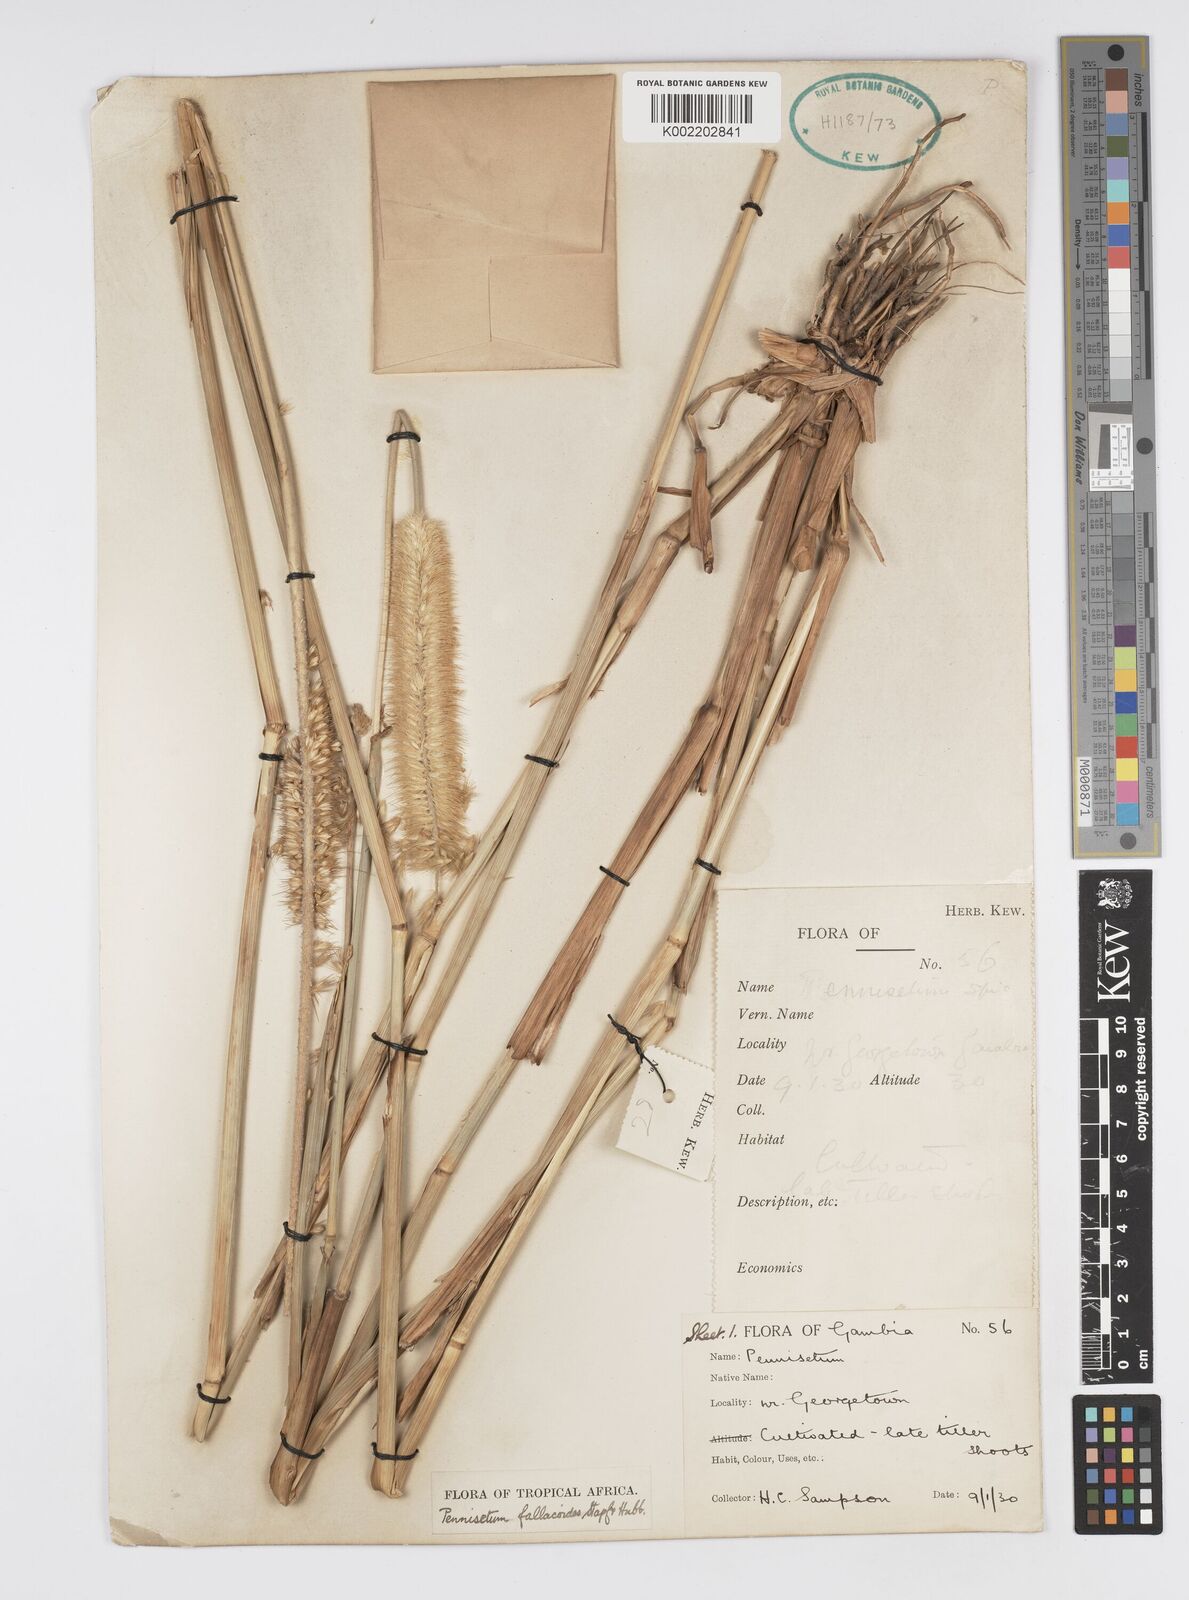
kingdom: Plantae
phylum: Tracheophyta
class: Liliopsida
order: Poales
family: Poaceae
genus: Cenchrus
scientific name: Cenchrus Pennisetum spec
